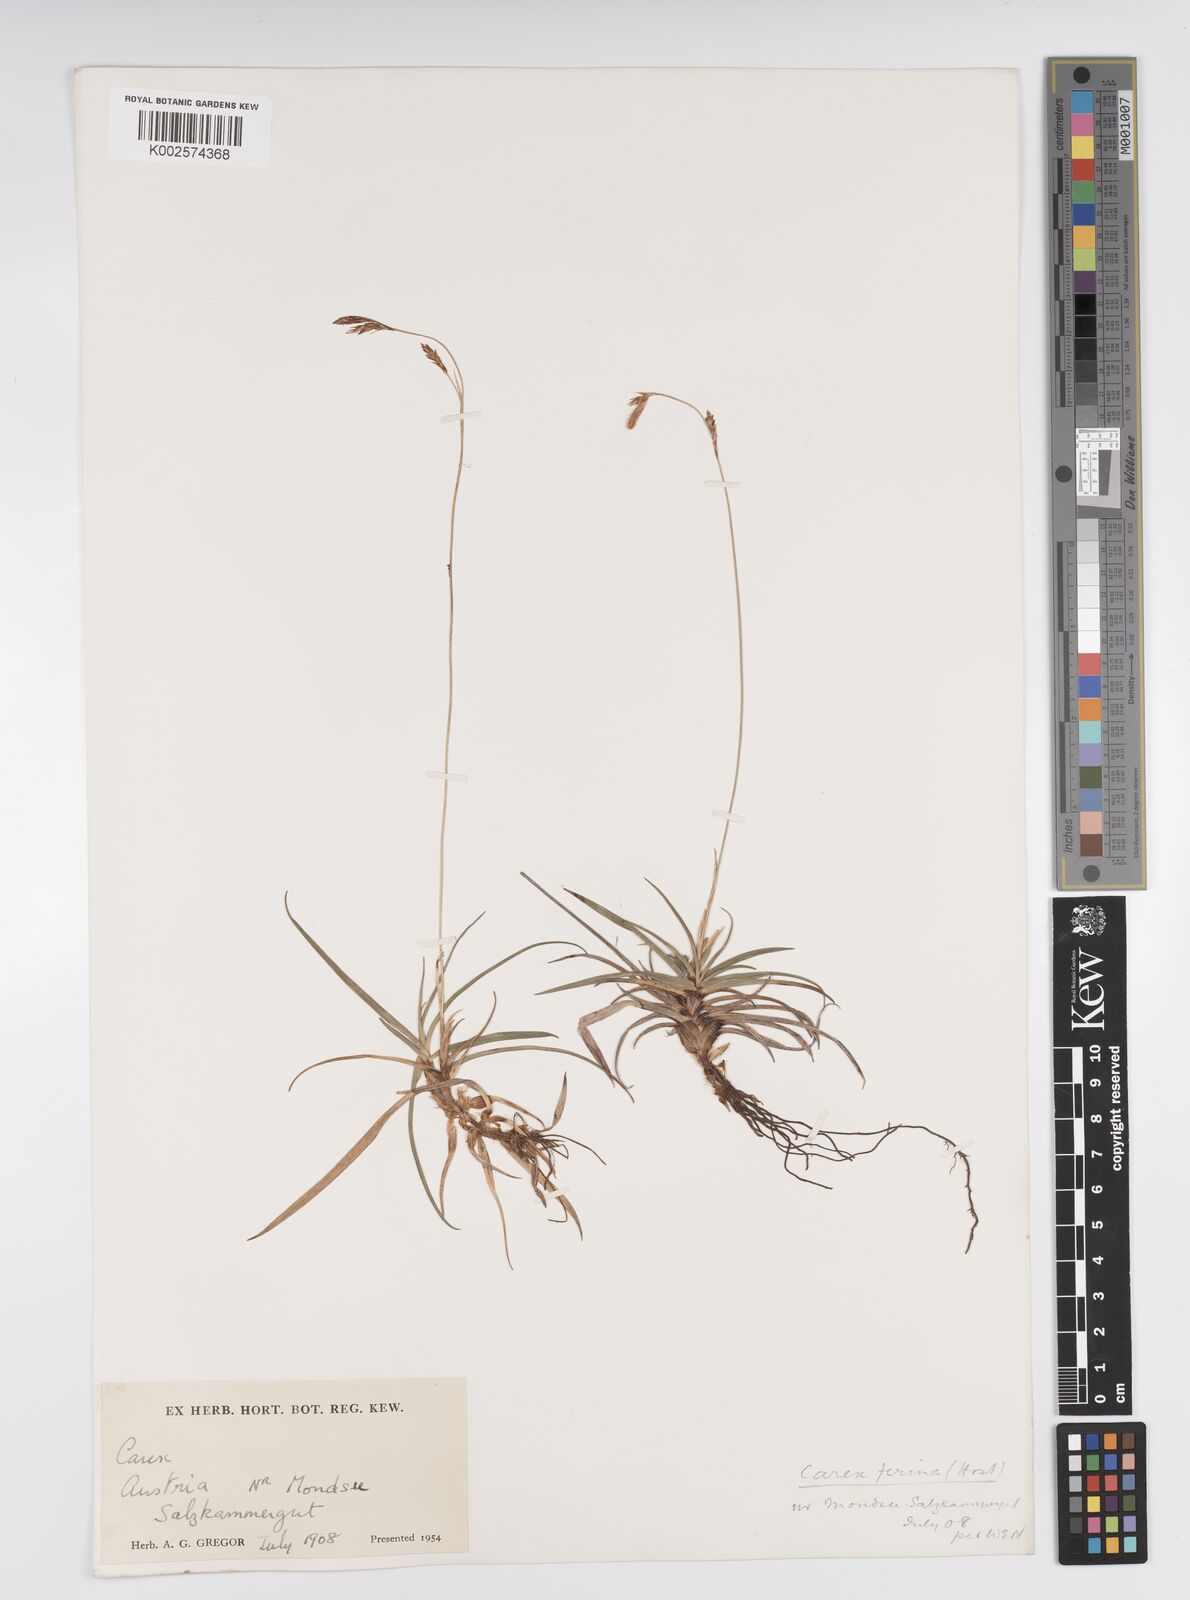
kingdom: Plantae
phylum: Tracheophyta
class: Liliopsida
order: Poales
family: Cyperaceae
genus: Carex
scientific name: Carex firma
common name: Dwarf pillow sedge
